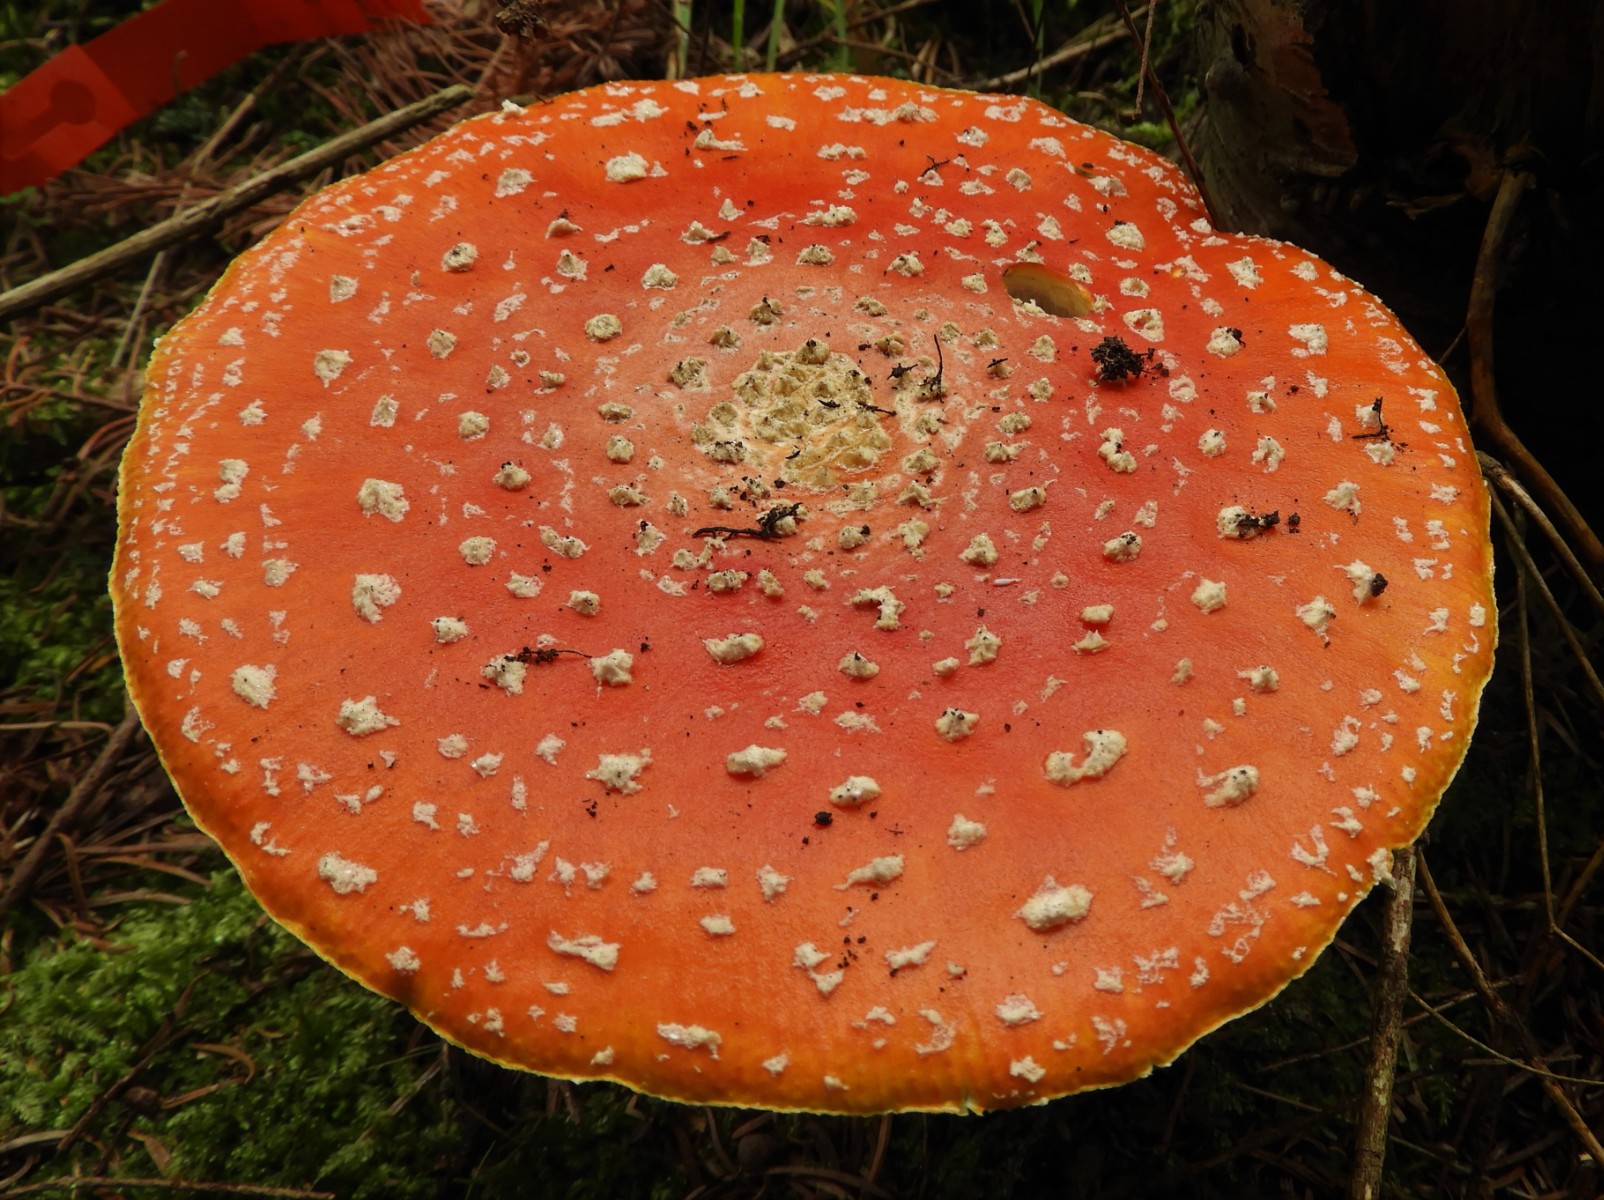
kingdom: Fungi
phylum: Basidiomycota
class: Agaricomycetes
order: Agaricales
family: Amanitaceae
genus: Amanita
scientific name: Amanita muscaria
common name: rød fluesvamp
